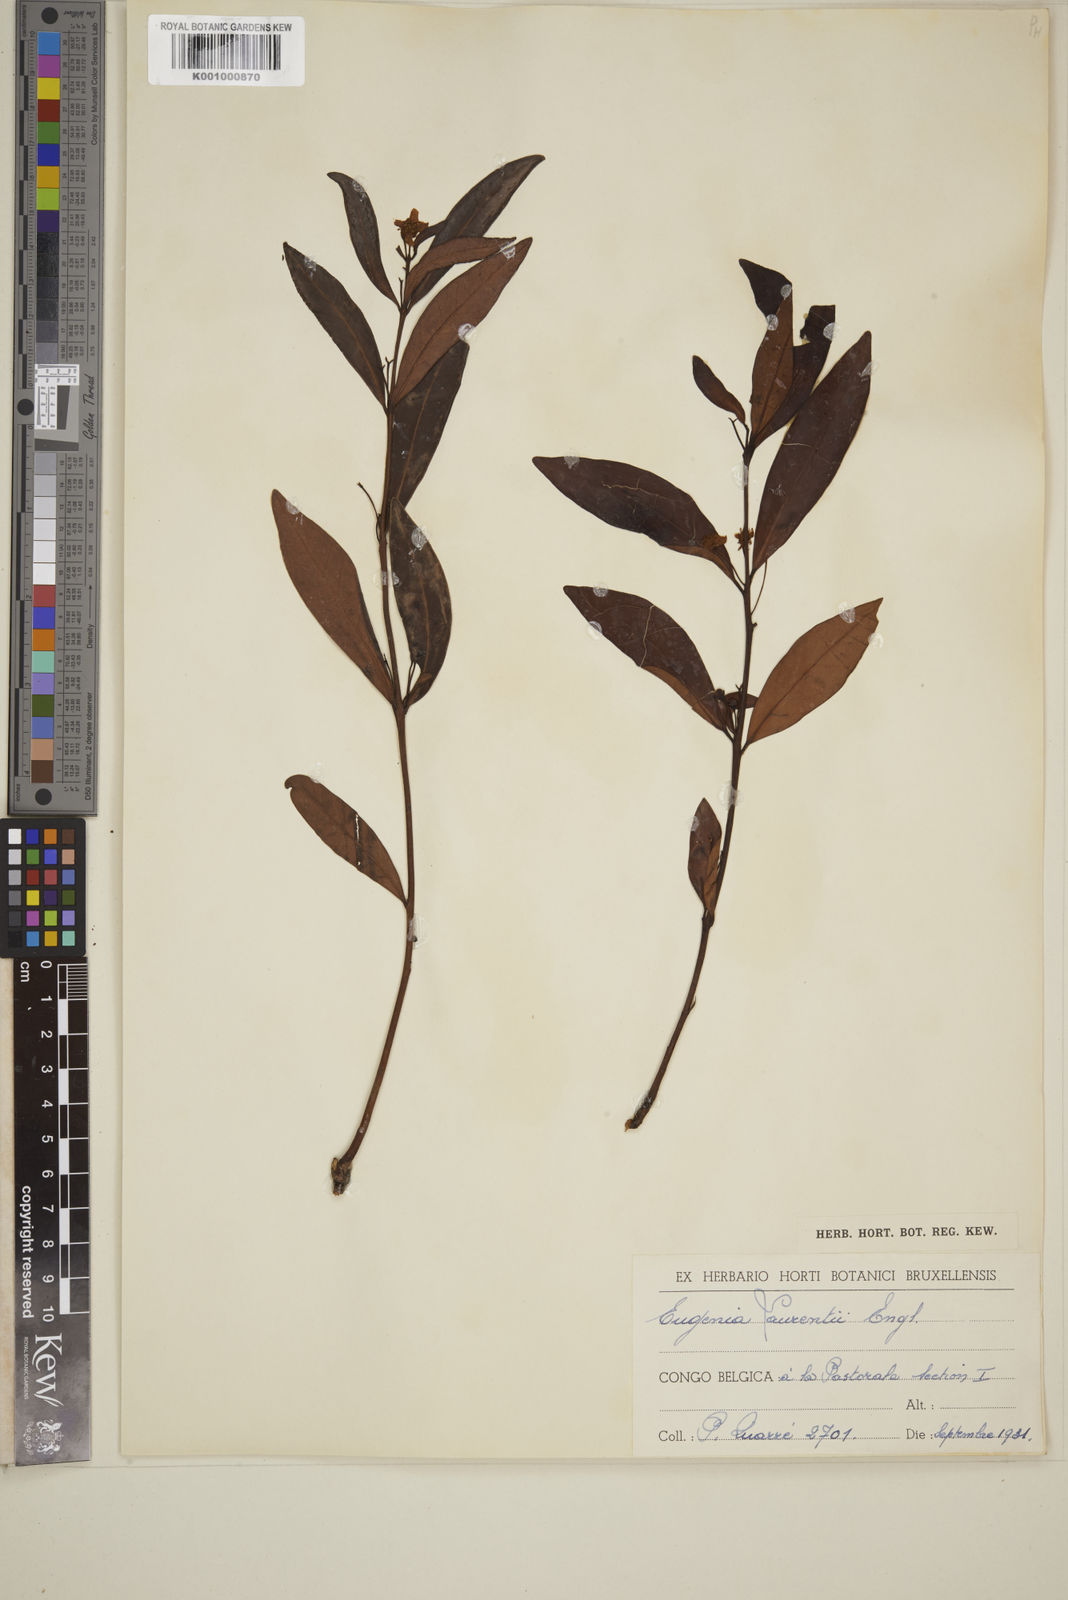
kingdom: Plantae
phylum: Tracheophyta
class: Magnoliopsida
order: Myrtales
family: Myrtaceae
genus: Eugenia
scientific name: Eugenia malangensis
